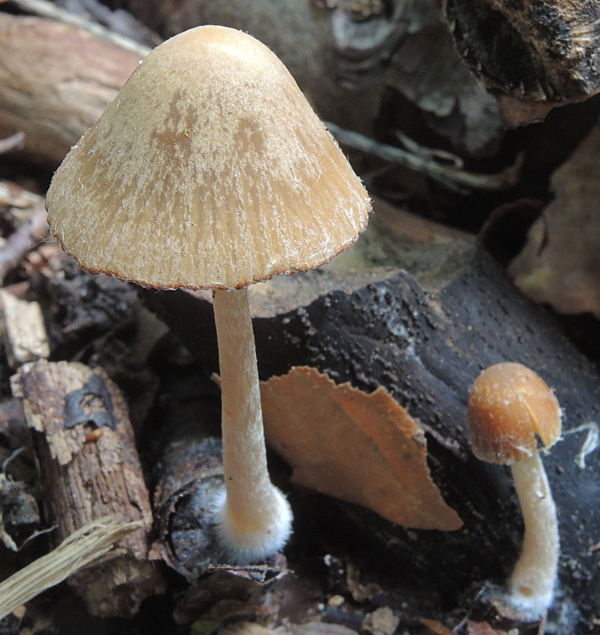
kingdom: Fungi
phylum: Basidiomycota
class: Agaricomycetes
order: Agaricales
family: Psathyrellaceae
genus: Psathyrella
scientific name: Psathyrella spadiceogrisea
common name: gråbrun mørkhat
